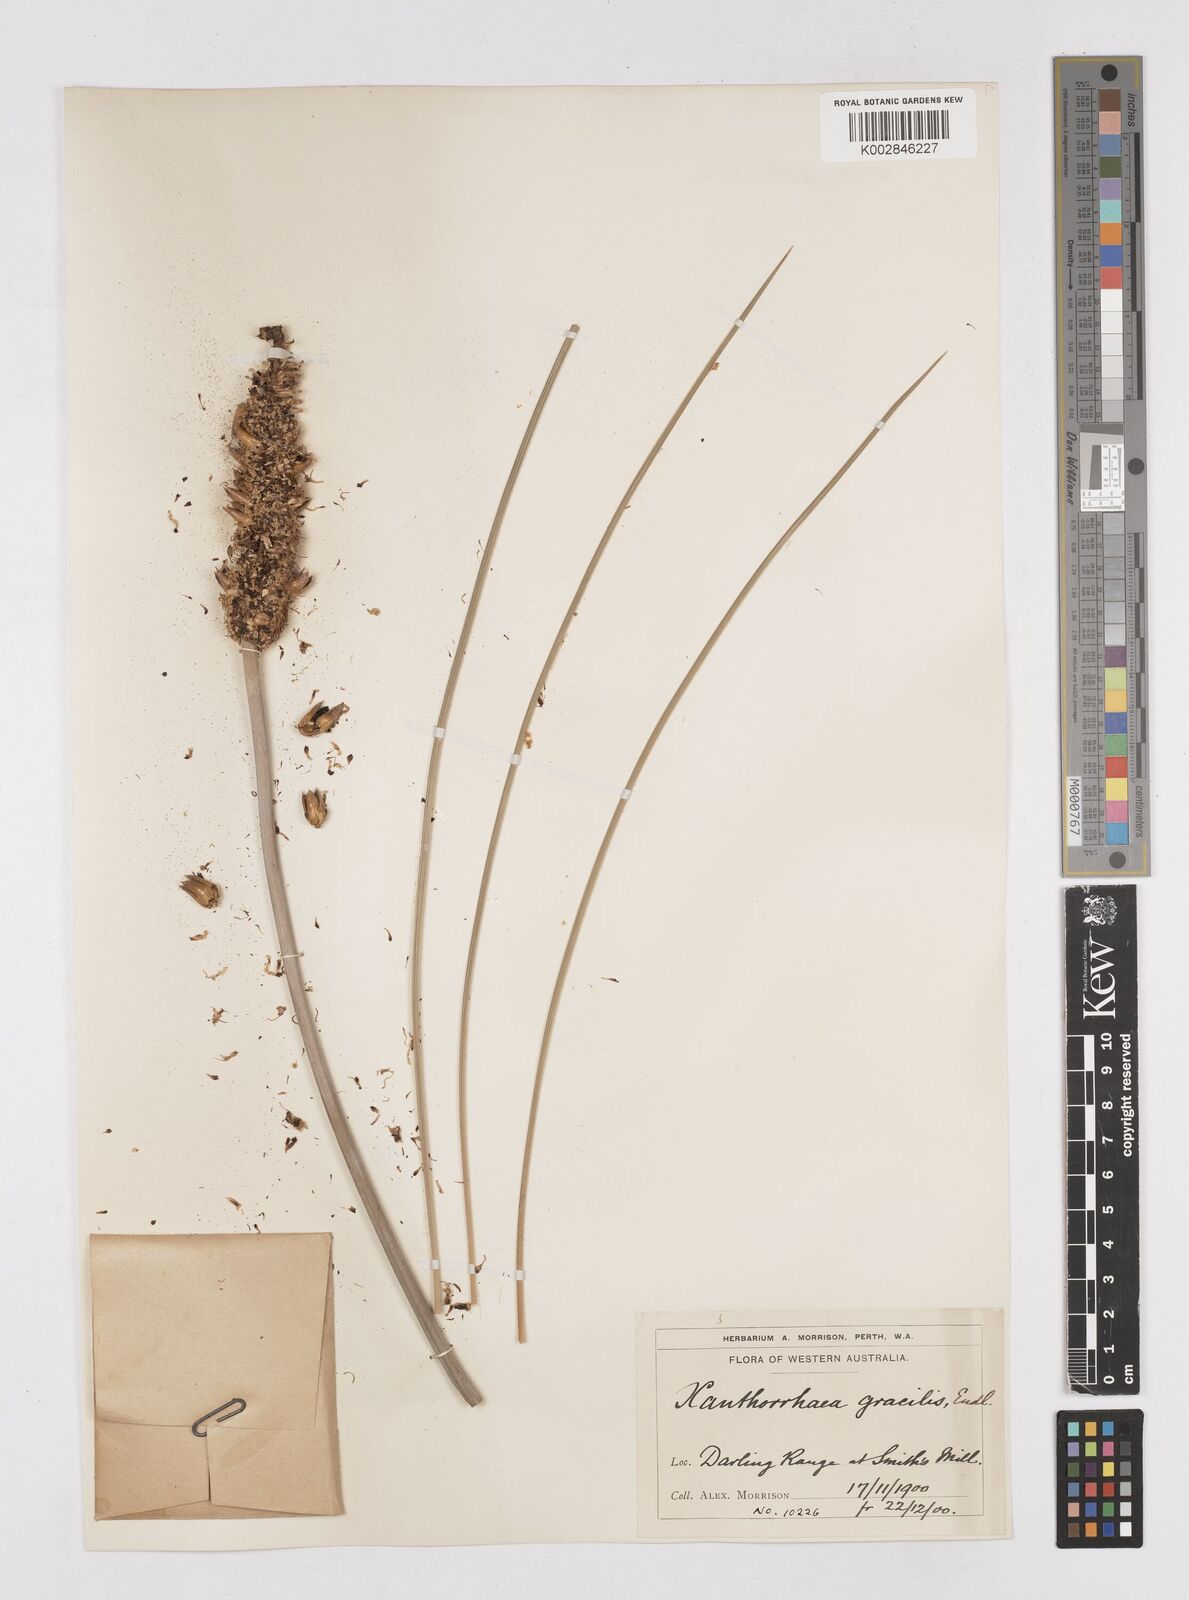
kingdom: Plantae
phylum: Tracheophyta
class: Liliopsida
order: Asparagales
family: Asphodelaceae
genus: Xanthorrhoea
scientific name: Xanthorrhoea gracilis
